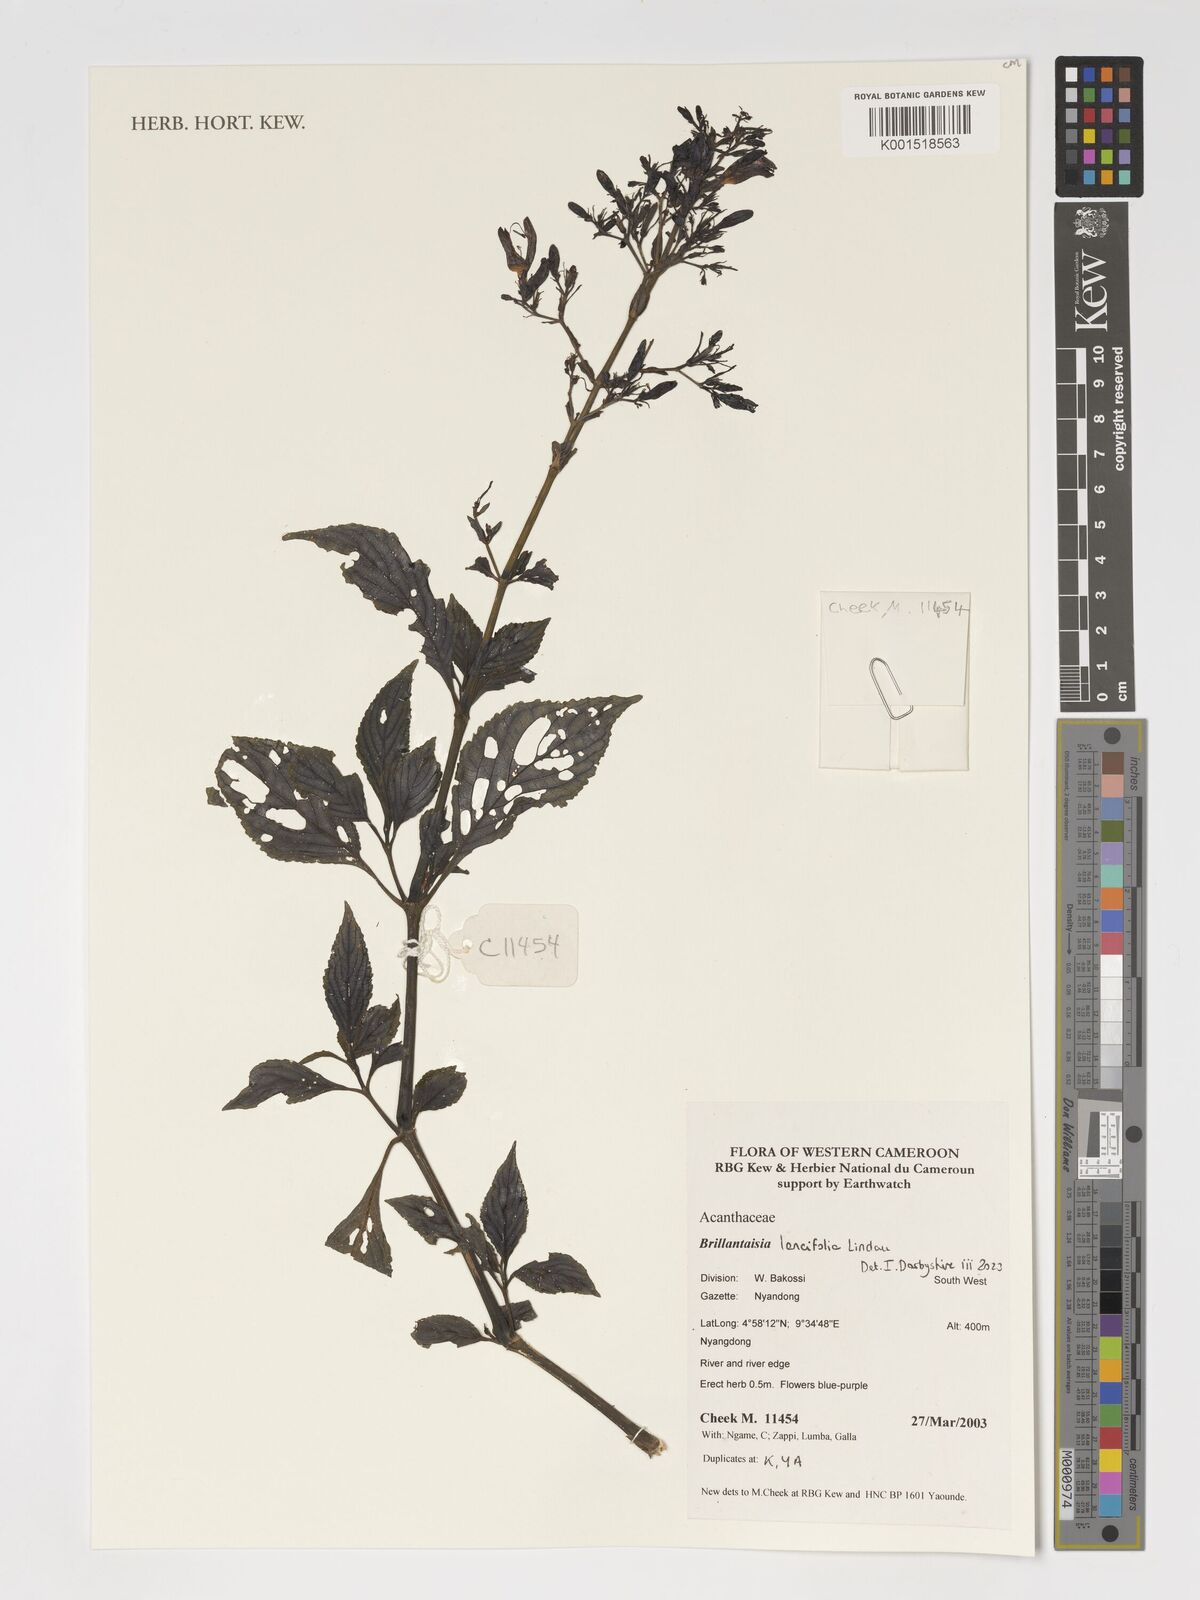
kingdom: Plantae
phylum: Tracheophyta
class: Magnoliopsida
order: Lamiales
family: Acanthaceae
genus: Brillantaisia
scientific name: Brillantaisia lancifolia
